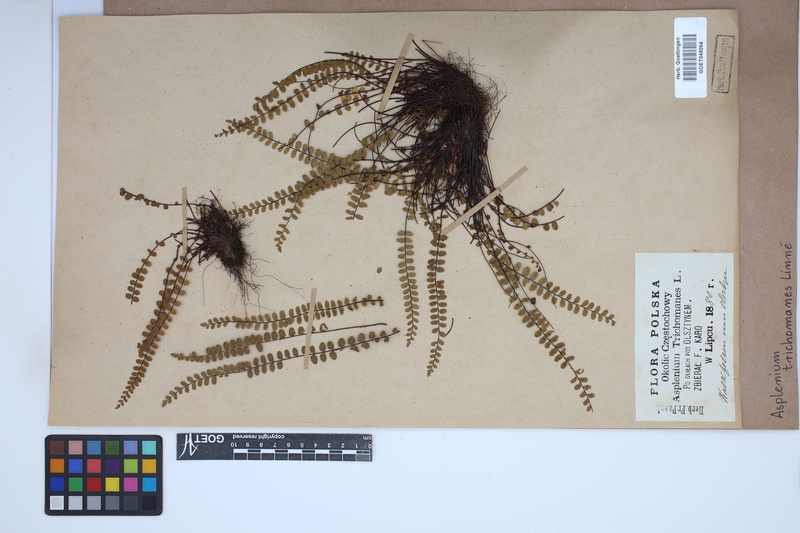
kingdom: Plantae
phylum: Tracheophyta
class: Polypodiopsida
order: Polypodiales
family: Aspleniaceae
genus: Asplenium
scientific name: Asplenium trichomanes
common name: Maidenhair spleenwort
